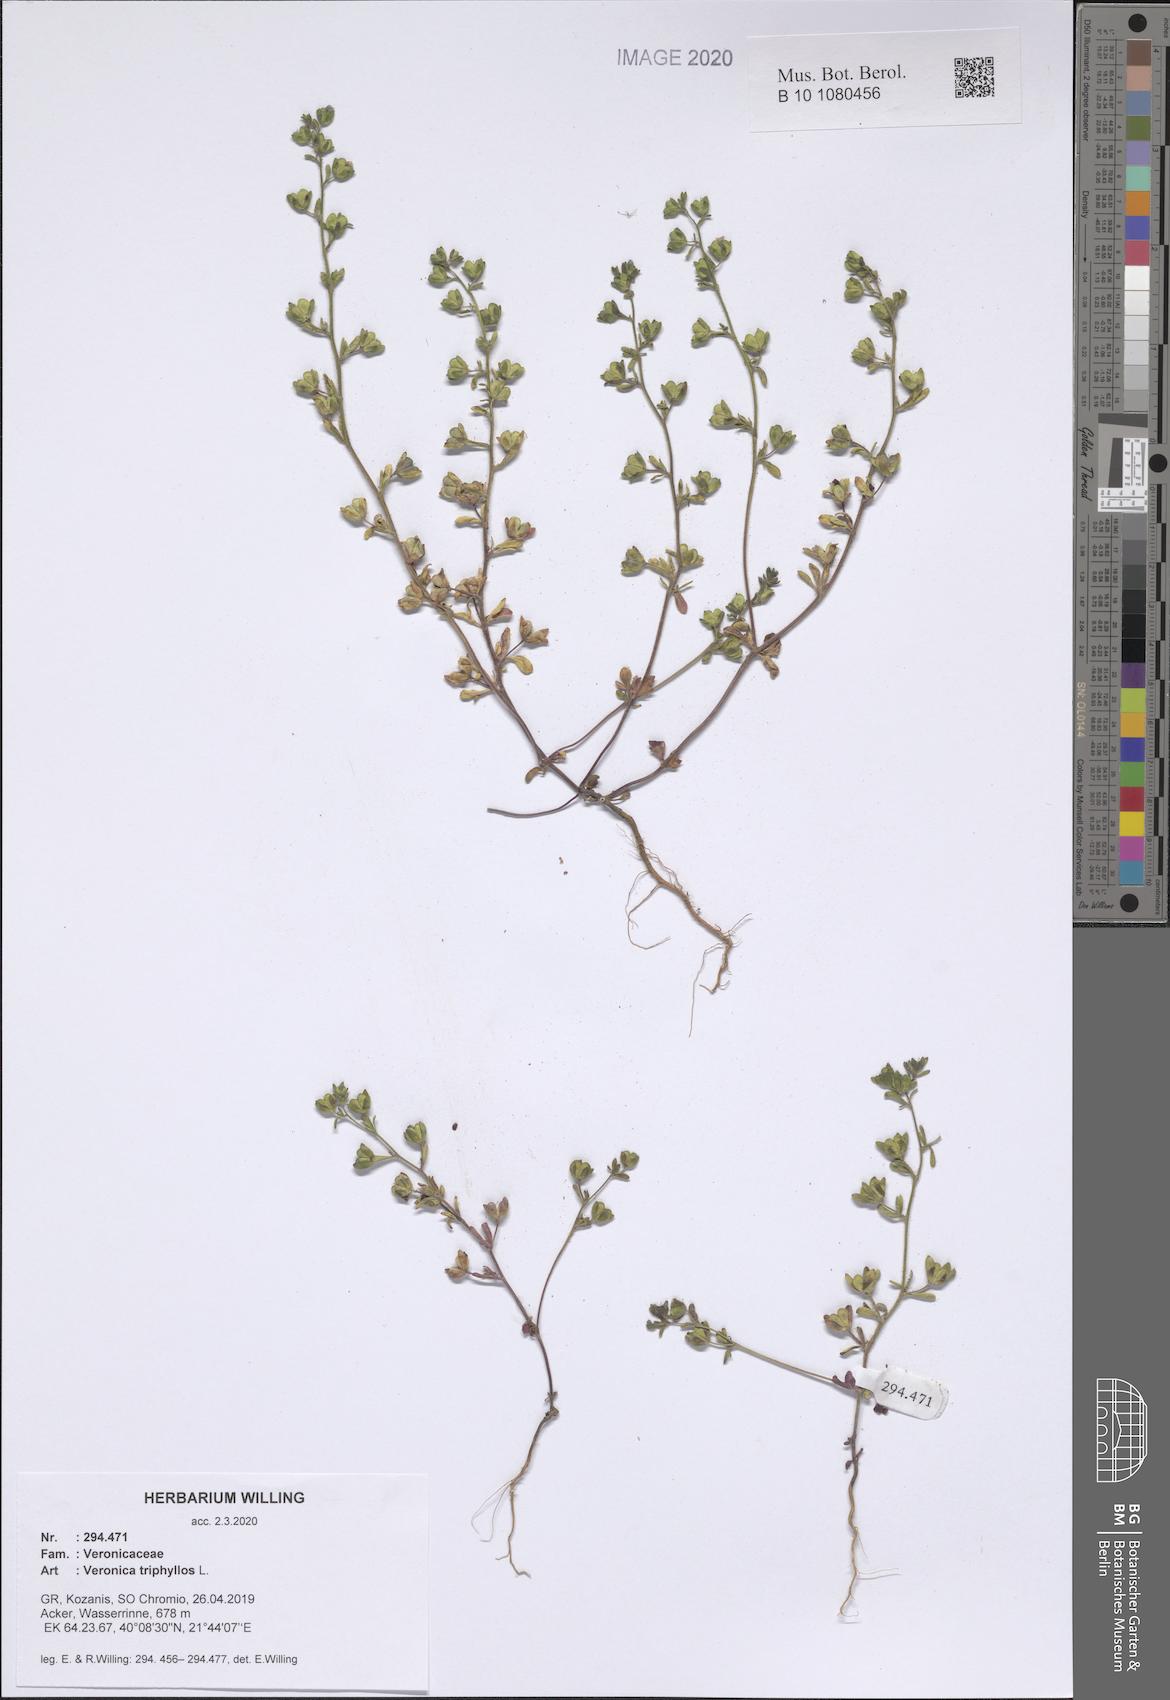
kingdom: Plantae
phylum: Tracheophyta
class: Magnoliopsida
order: Lamiales
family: Plantaginaceae
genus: Veronica
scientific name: Veronica triphyllos
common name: Fingered speedwell
